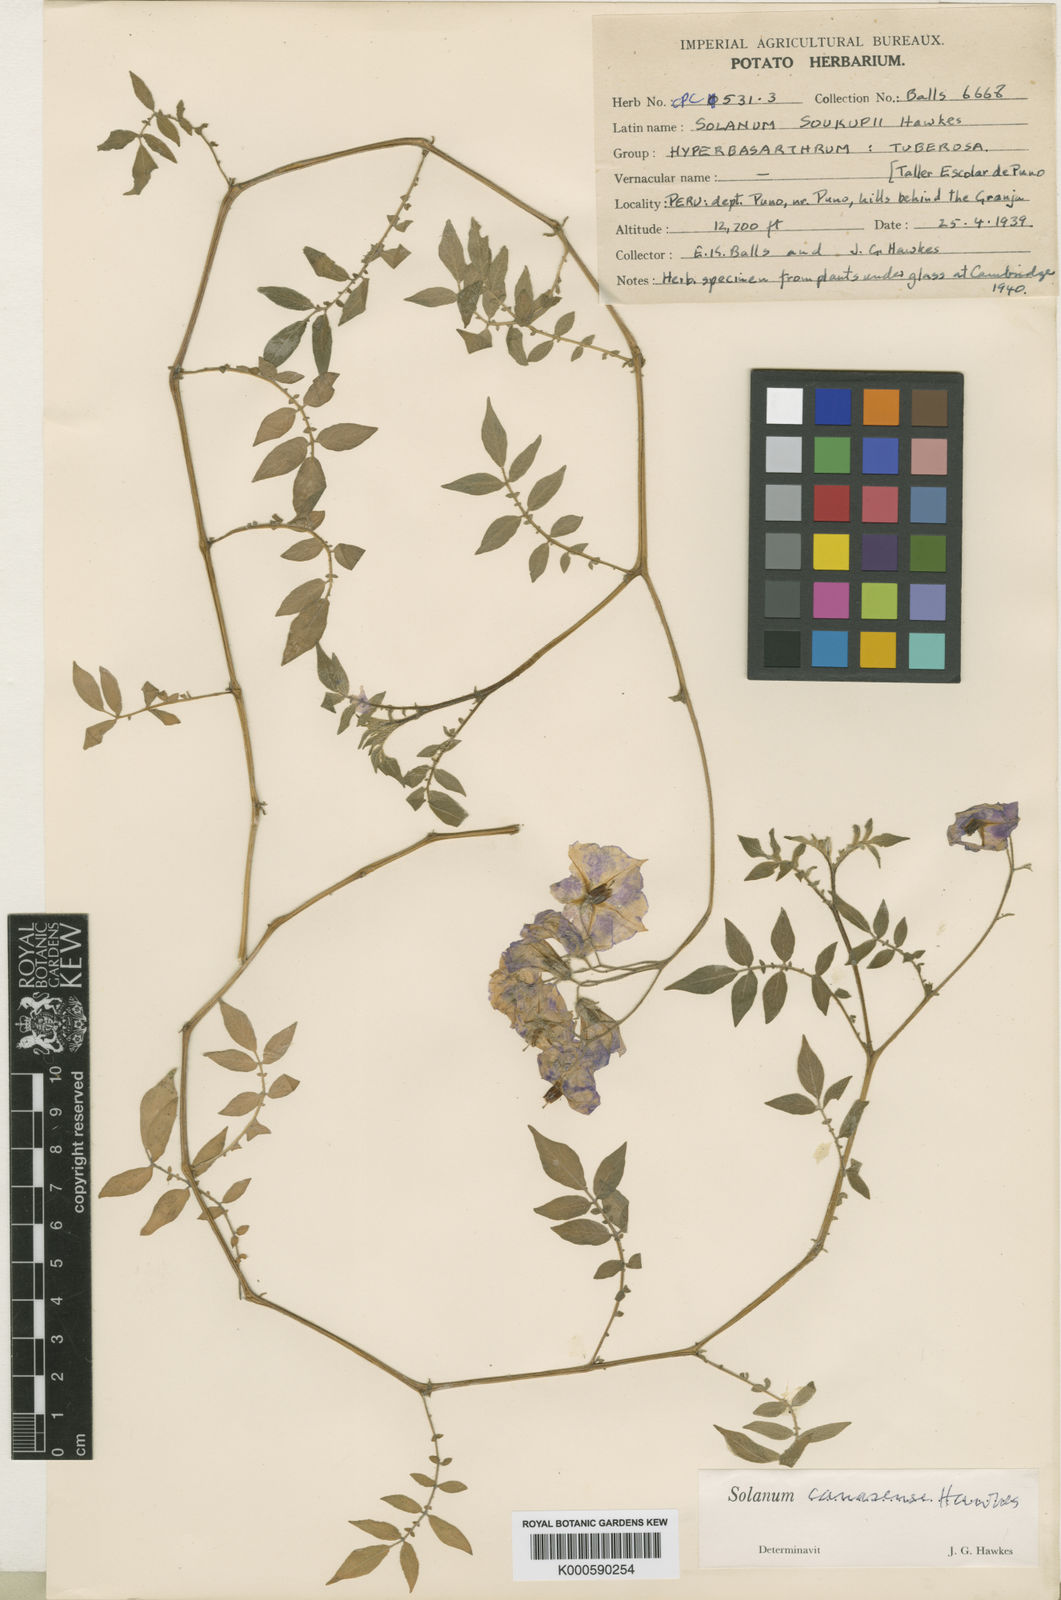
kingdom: Plantae
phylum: Tracheophyta
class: Magnoliopsida
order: Solanales
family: Solanaceae
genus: Solanum
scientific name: Solanum candolleanum
